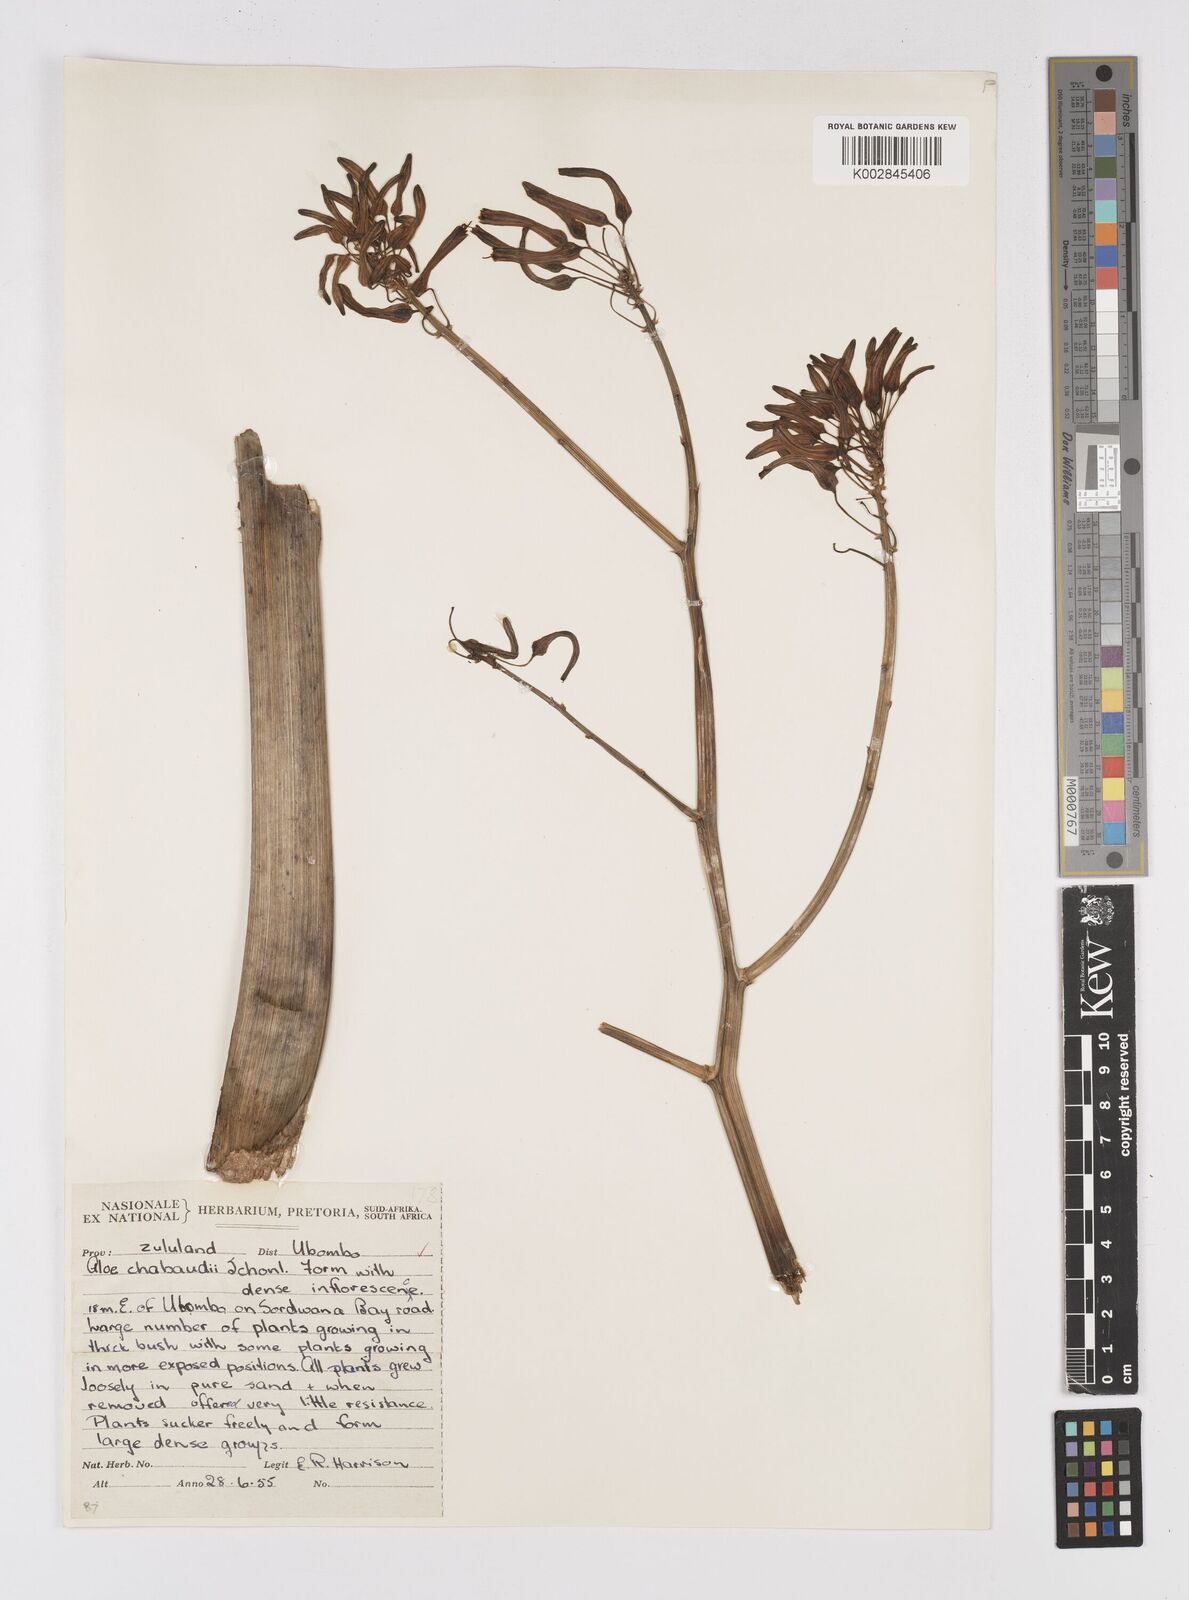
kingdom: Plantae
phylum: Tracheophyta
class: Liliopsida
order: Asparagales
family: Asphodelaceae
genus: Aloe
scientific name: Aloe chabaudii
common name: Chabaud's aloe
